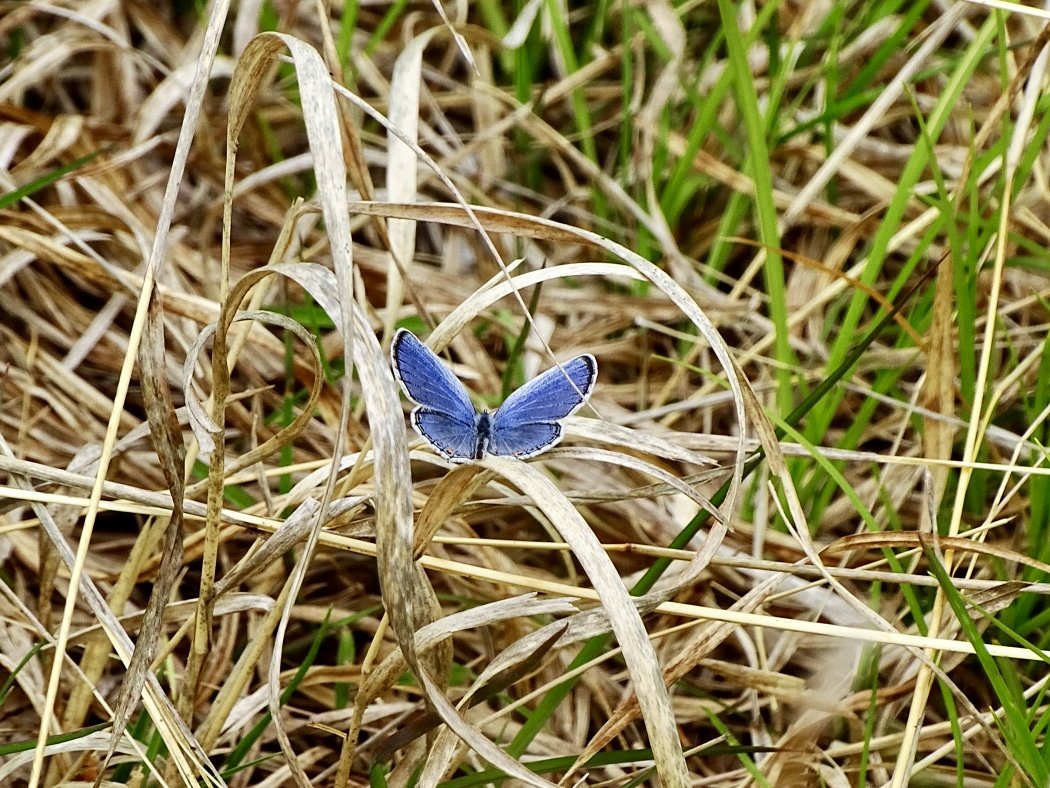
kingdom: Animalia
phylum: Arthropoda
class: Insecta
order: Lepidoptera
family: Lycaenidae
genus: Elkalyce
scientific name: Elkalyce comyntas
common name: Eastern Tailed-Blue
